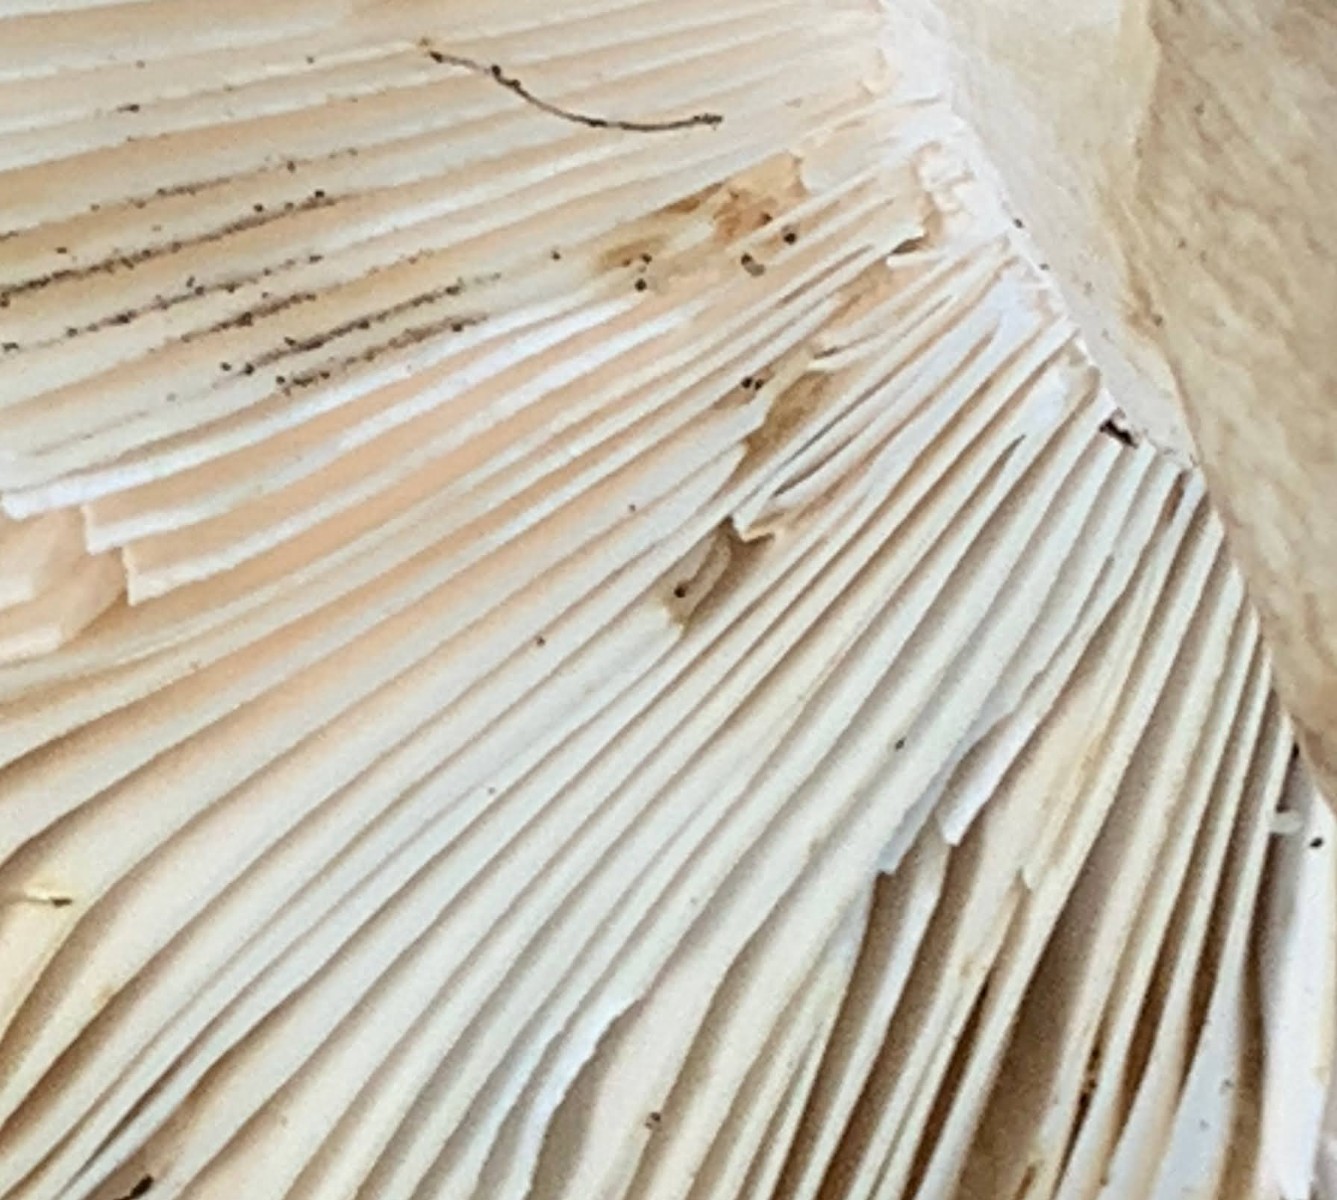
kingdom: Fungi
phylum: Basidiomycota
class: Agaricomycetes
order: Russulales
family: Russulaceae
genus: Russula
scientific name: Russula heterophylla
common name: gaffelbladet skørhat
